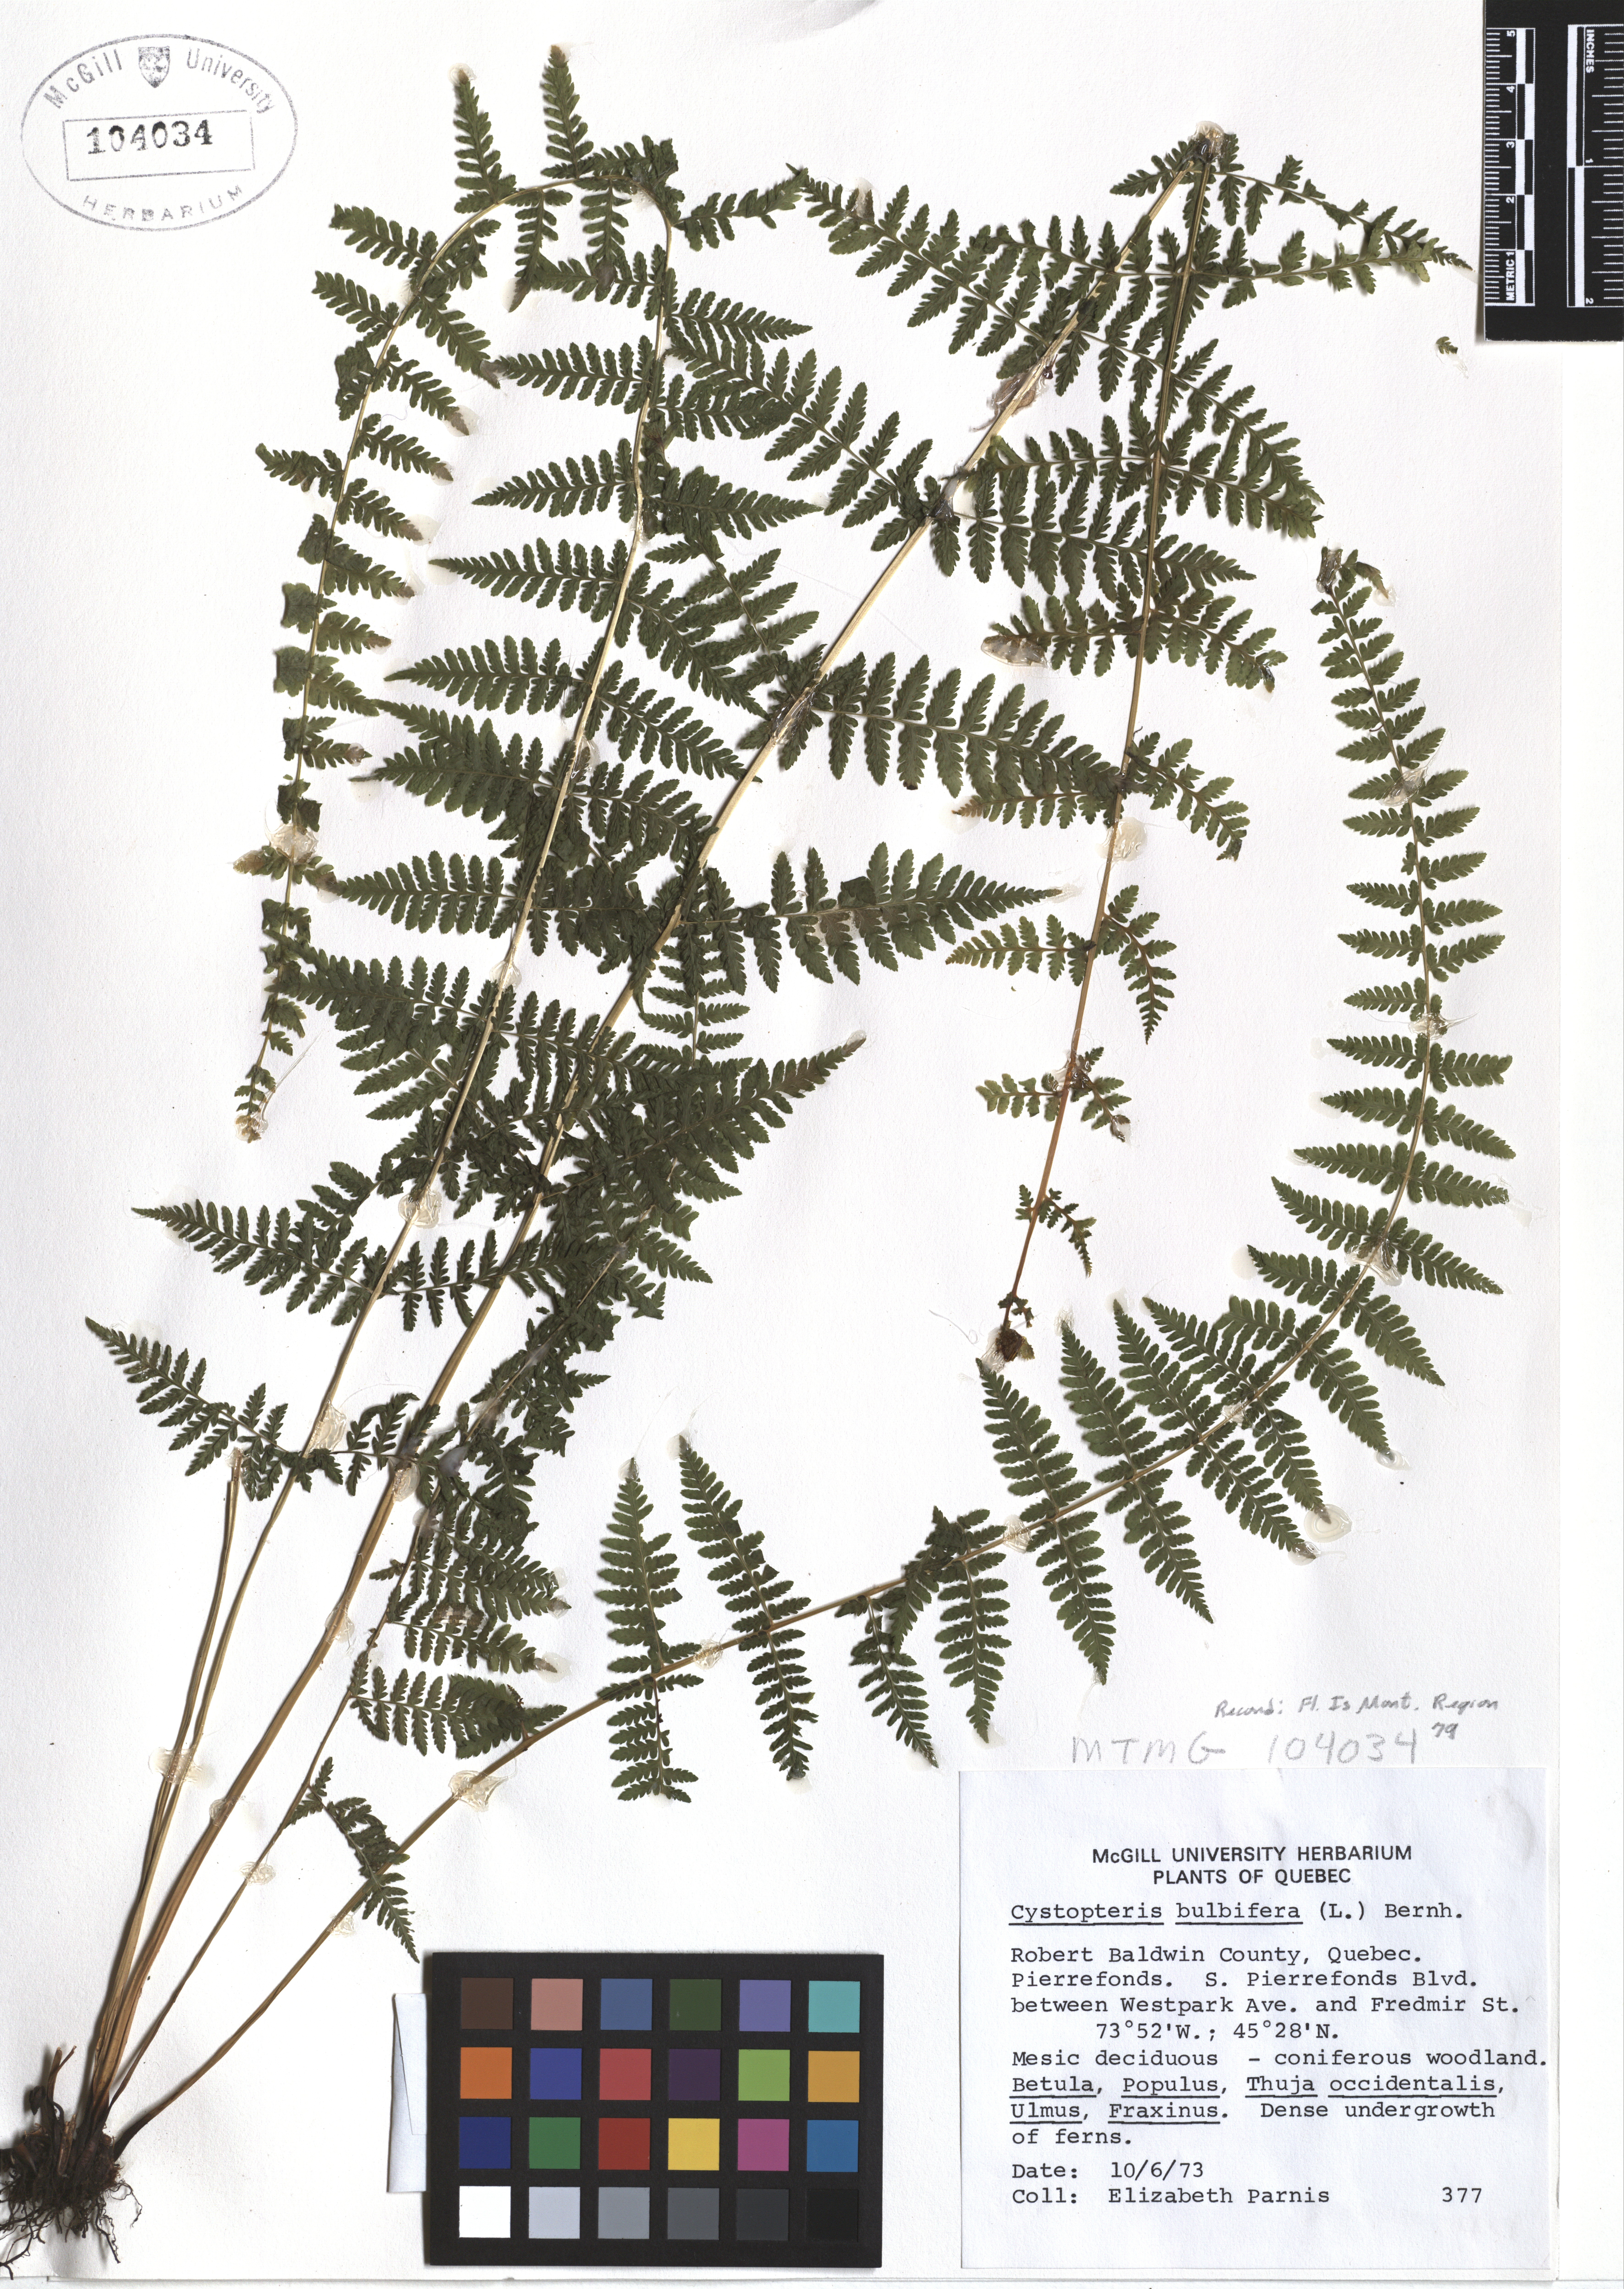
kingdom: Plantae
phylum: Tracheophyta
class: Polypodiopsida
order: Polypodiales
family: Cystopteridaceae
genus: Cystopteris
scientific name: Cystopteris bulbifera
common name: Bulblet bladder fern
